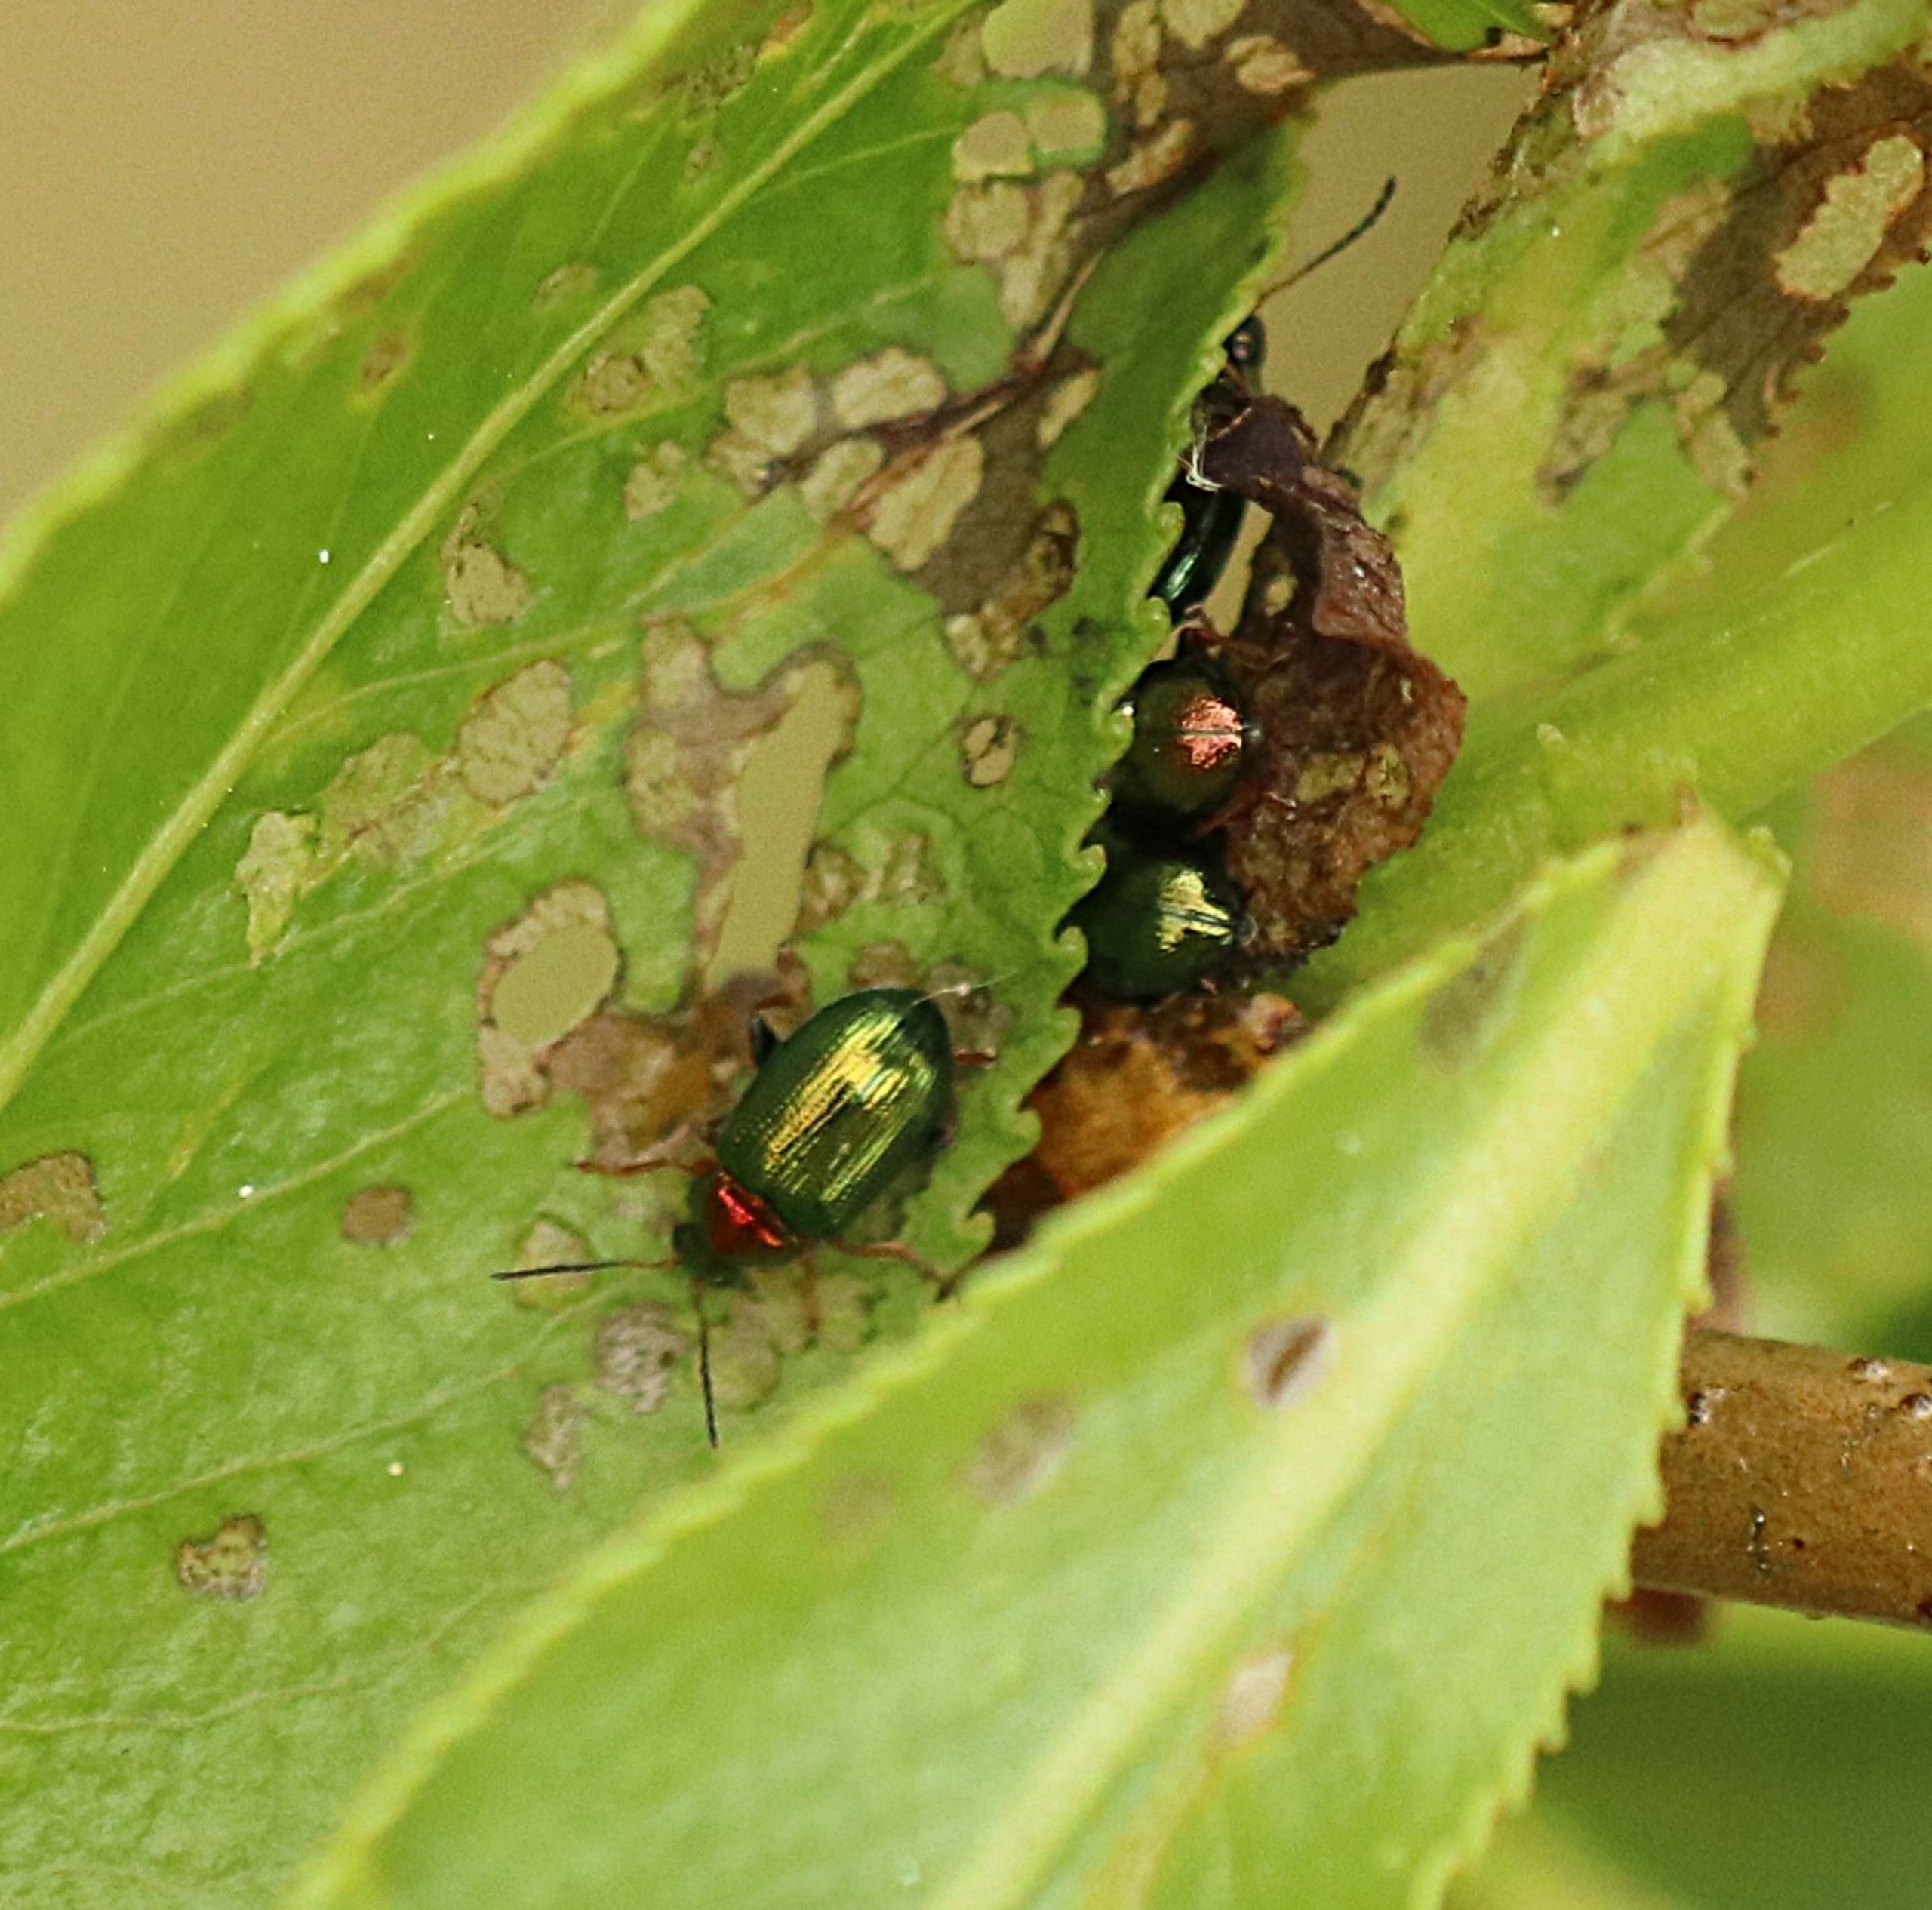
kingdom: Animalia
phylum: Arthropoda
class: Insecta
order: Coleoptera
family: Chrysomelidae
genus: Crepidodera
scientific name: Crepidodera aurata
